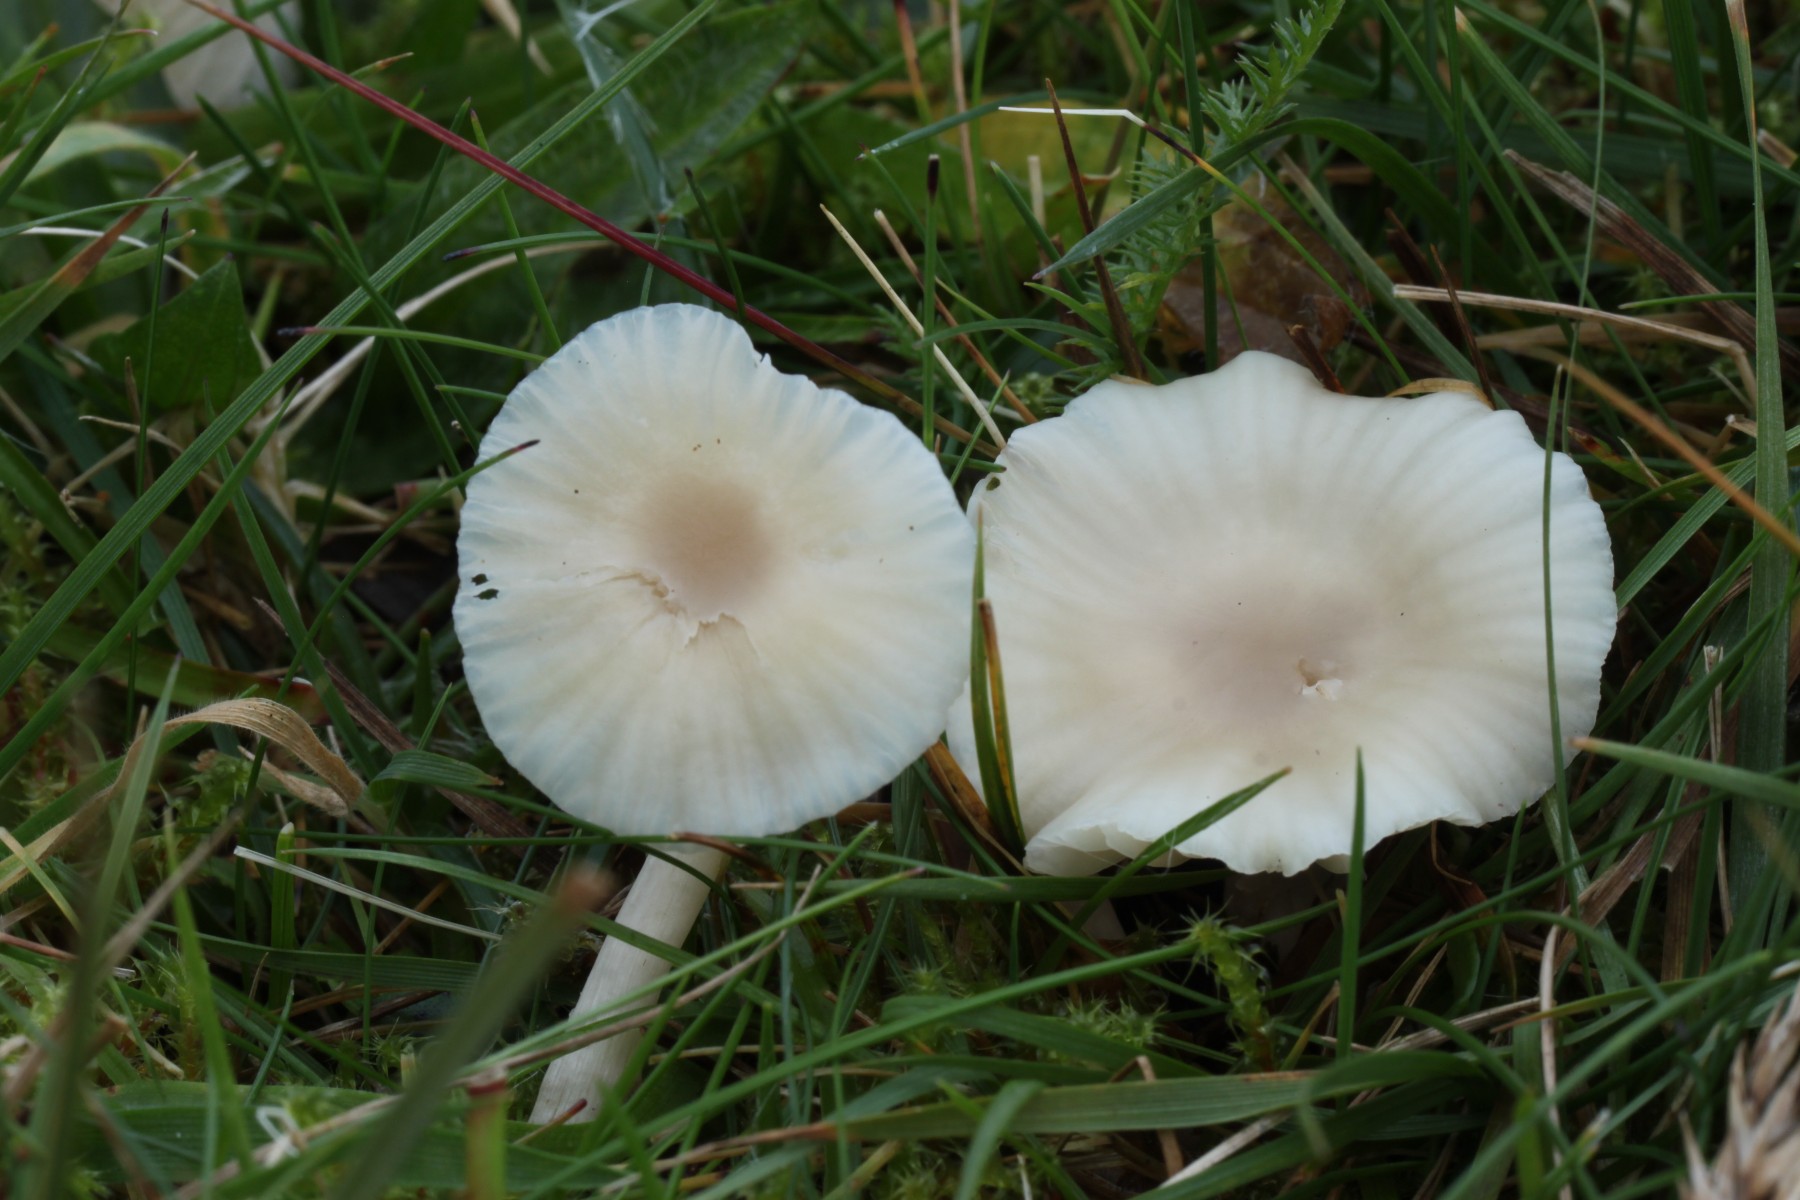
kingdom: Fungi
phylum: Basidiomycota
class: Agaricomycetes
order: Agaricales
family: Hygrophoraceae
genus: Cuphophyllus
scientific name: Cuphophyllus virgineus
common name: brunøjet vokshat
